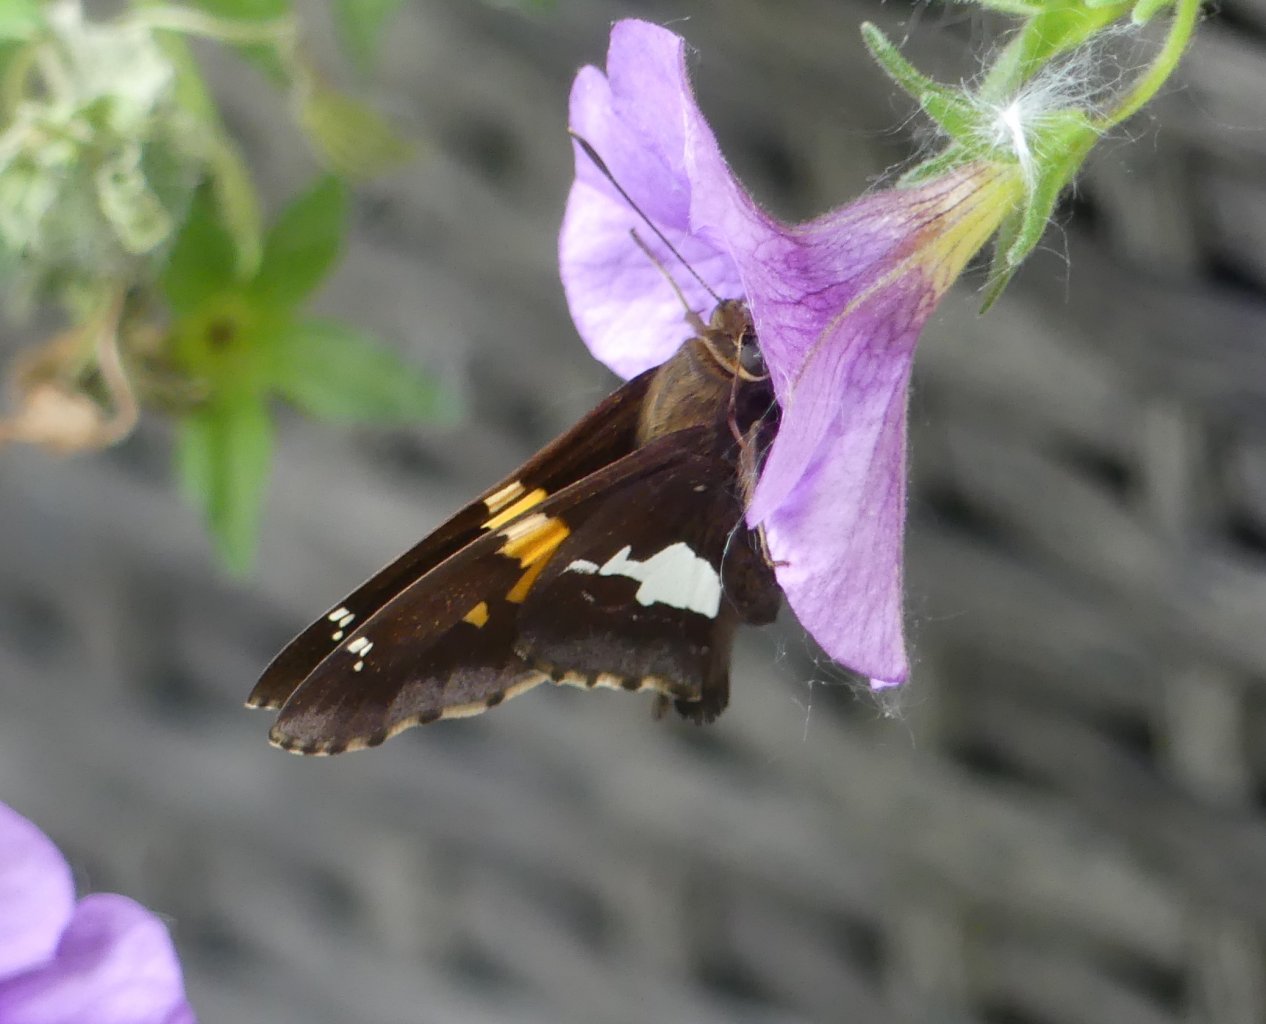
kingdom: Animalia
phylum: Arthropoda
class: Insecta
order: Lepidoptera
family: Hesperiidae
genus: Epargyreus
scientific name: Epargyreus clarus
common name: Silver-spotted Skipper
